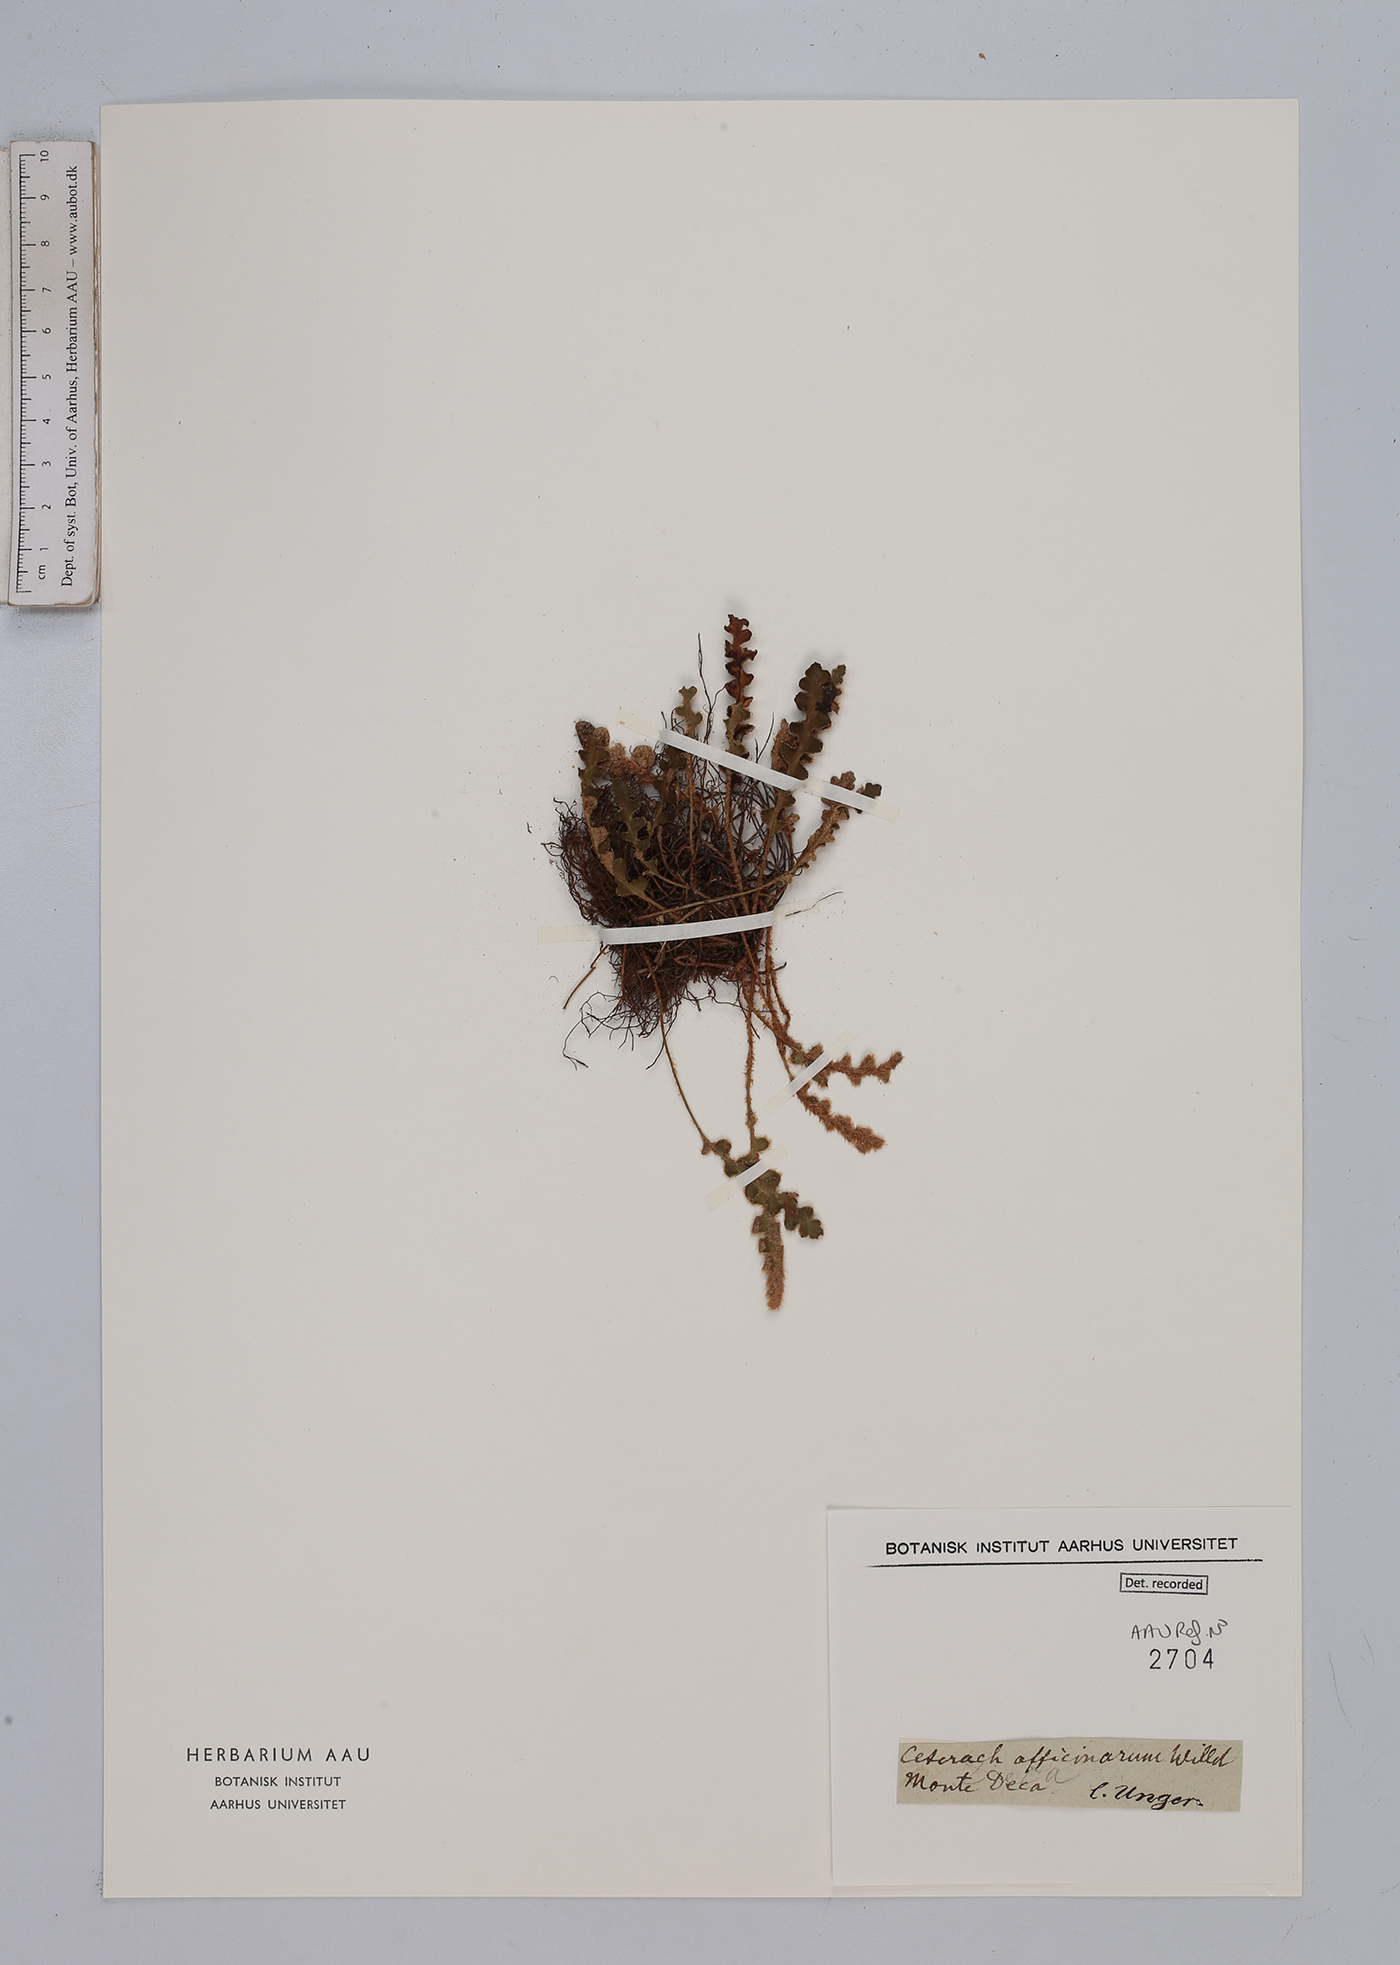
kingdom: Plantae
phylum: Tracheophyta
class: Polypodiopsida
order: Polypodiales
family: Aspleniaceae
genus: Asplenium
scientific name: Asplenium ceterach
